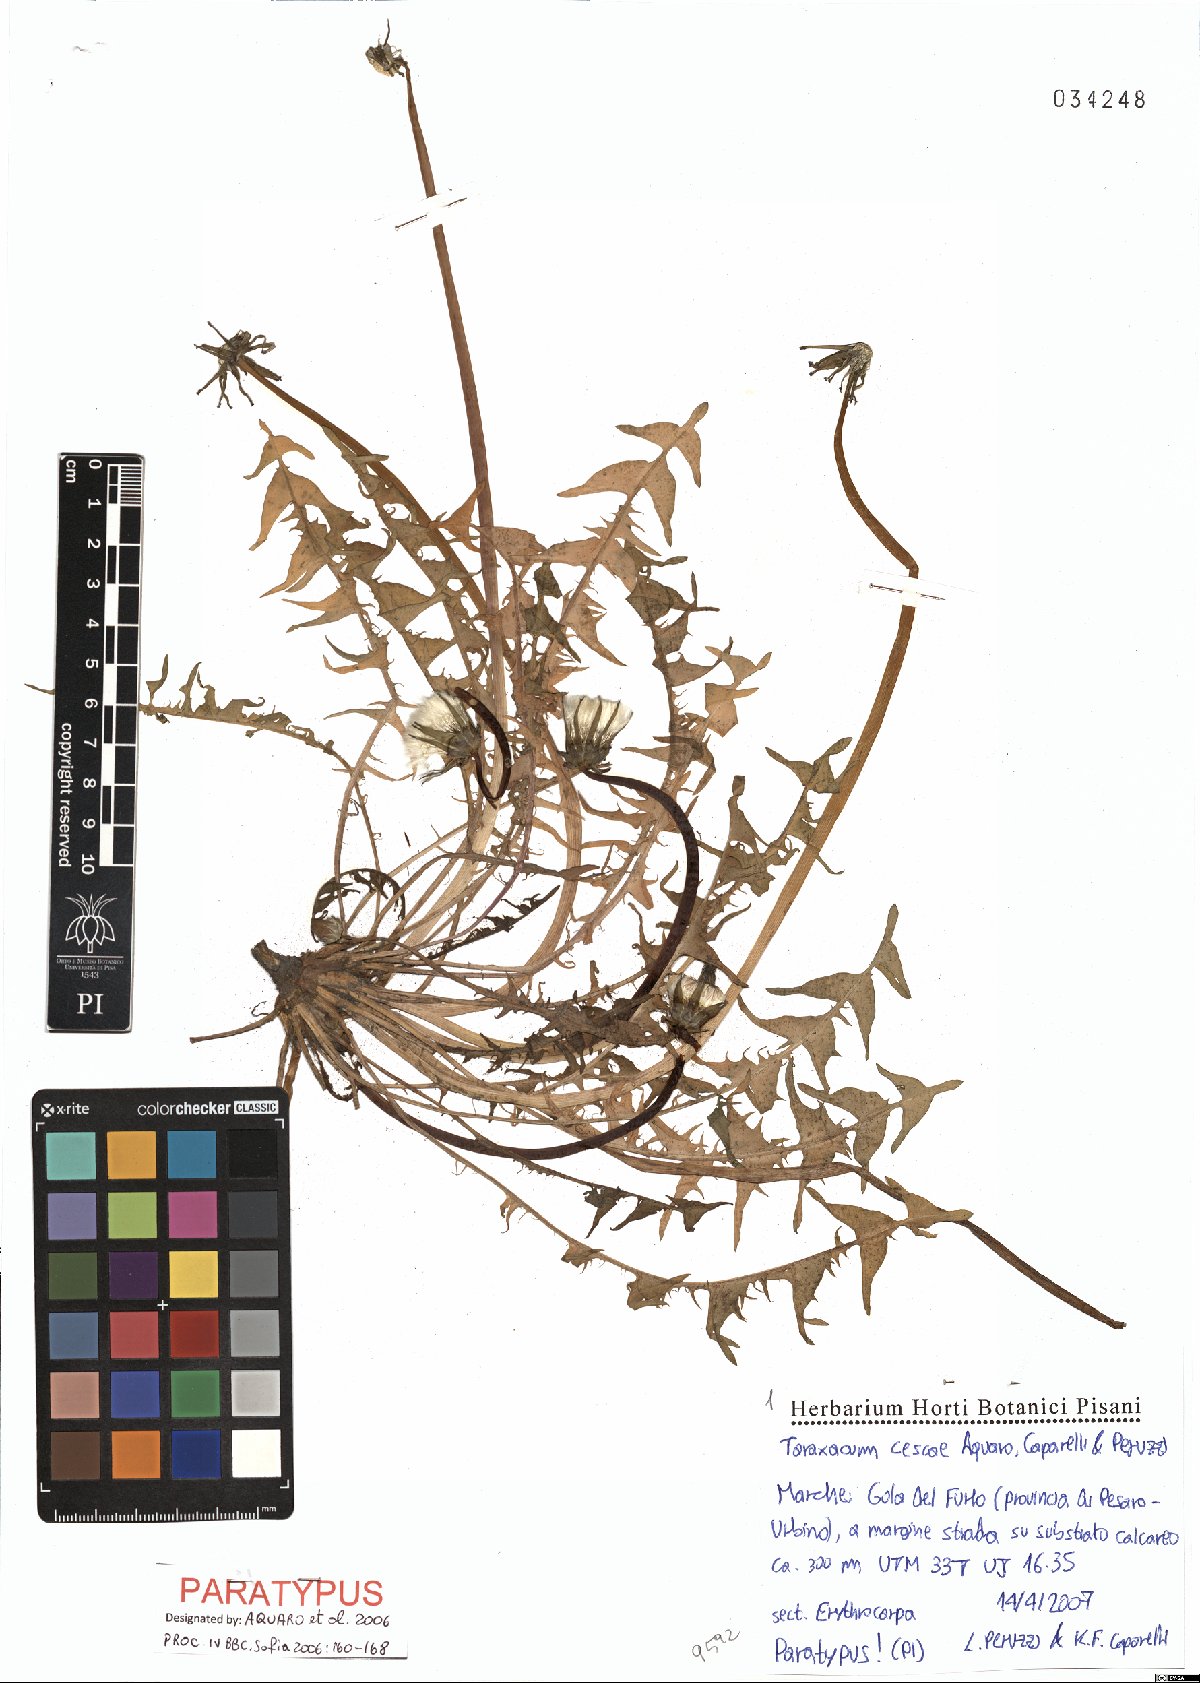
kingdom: Plantae
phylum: Tracheophyta
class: Magnoliopsida
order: Asterales
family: Asteraceae
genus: Taraxacum
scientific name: Taraxacum cescae
